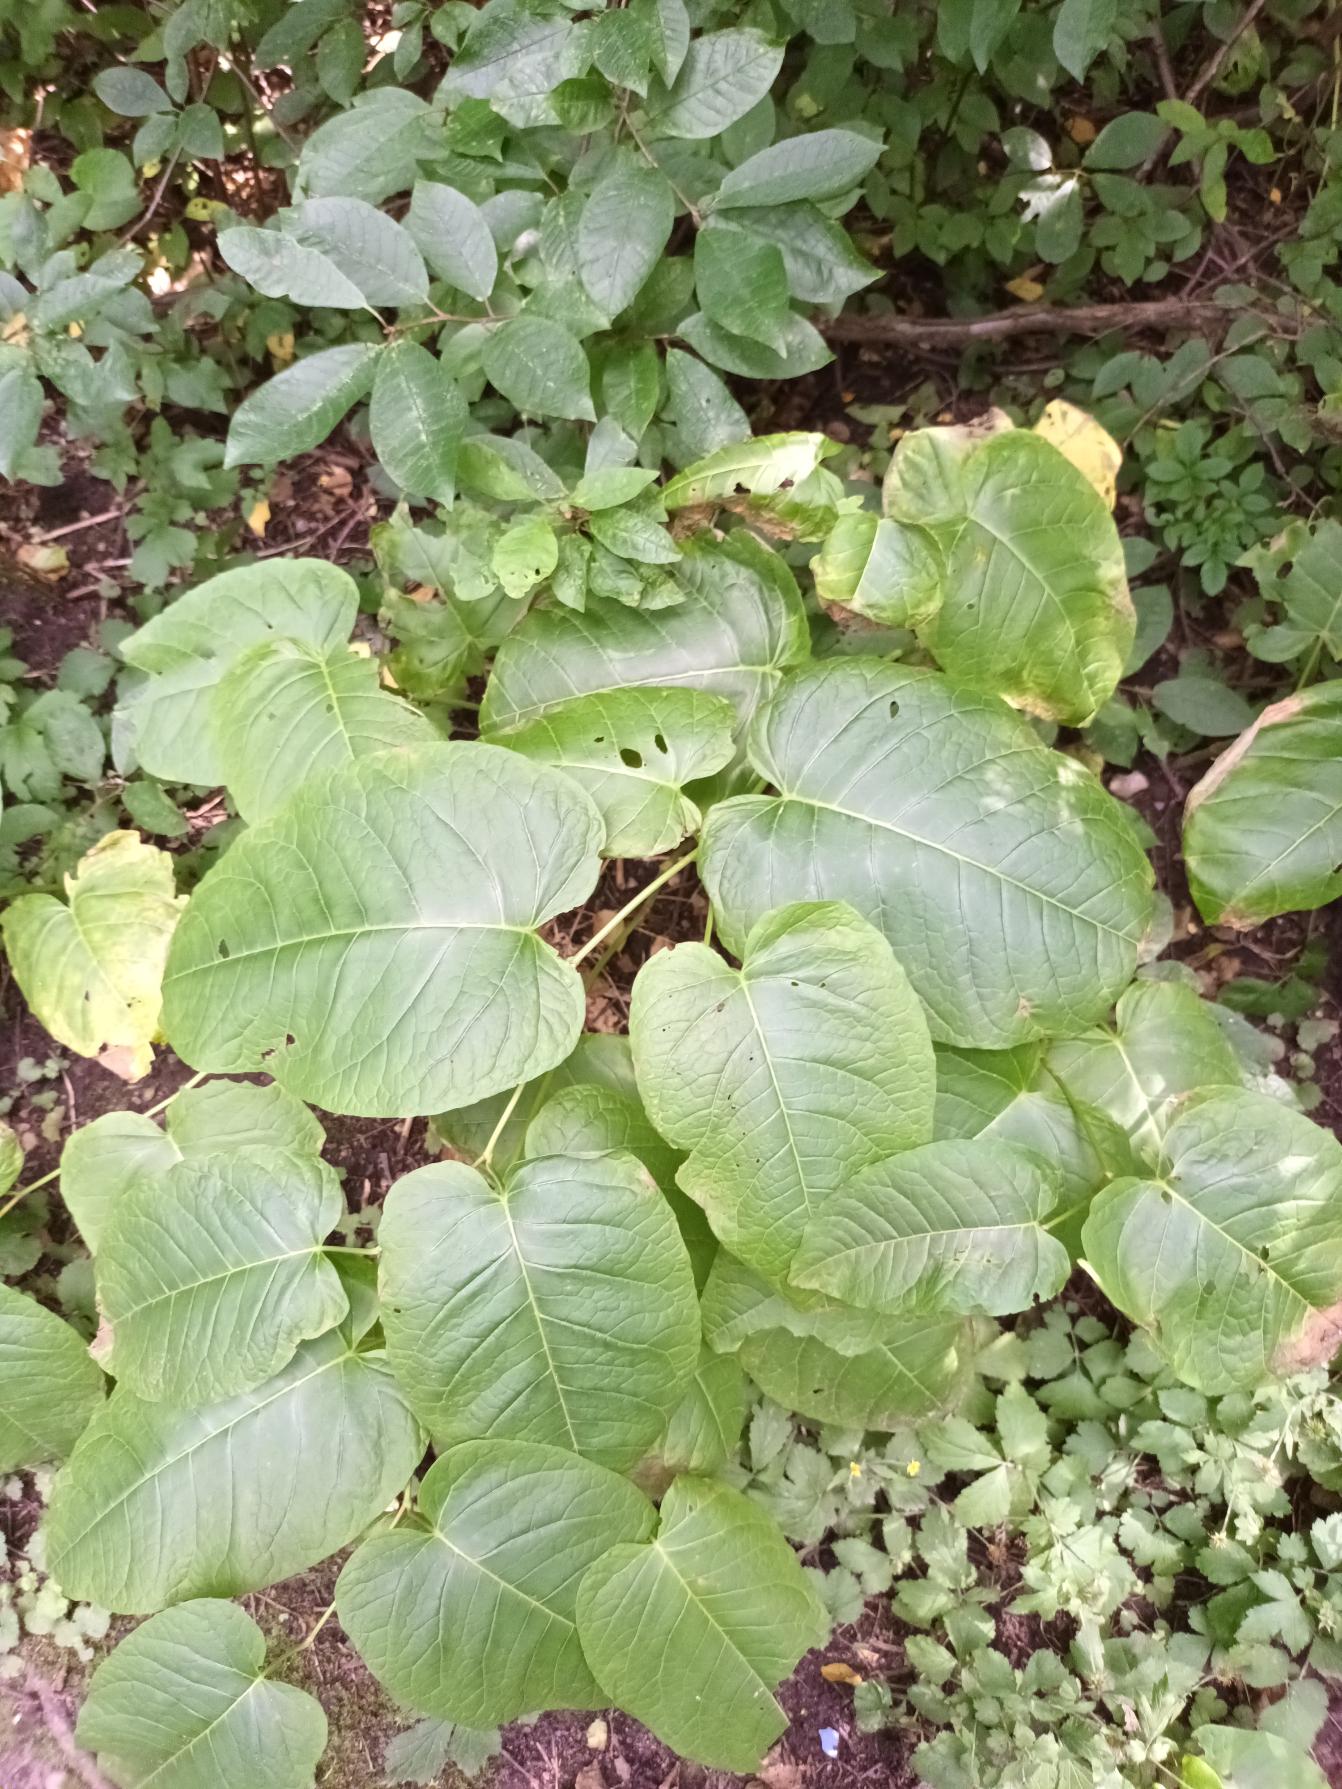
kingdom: Plantae
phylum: Tracheophyta
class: Magnoliopsida
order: Caryophyllales
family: Polygonaceae
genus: Reynoutria
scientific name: Reynoutria sachalinensis
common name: Kæmpe-pileurt
